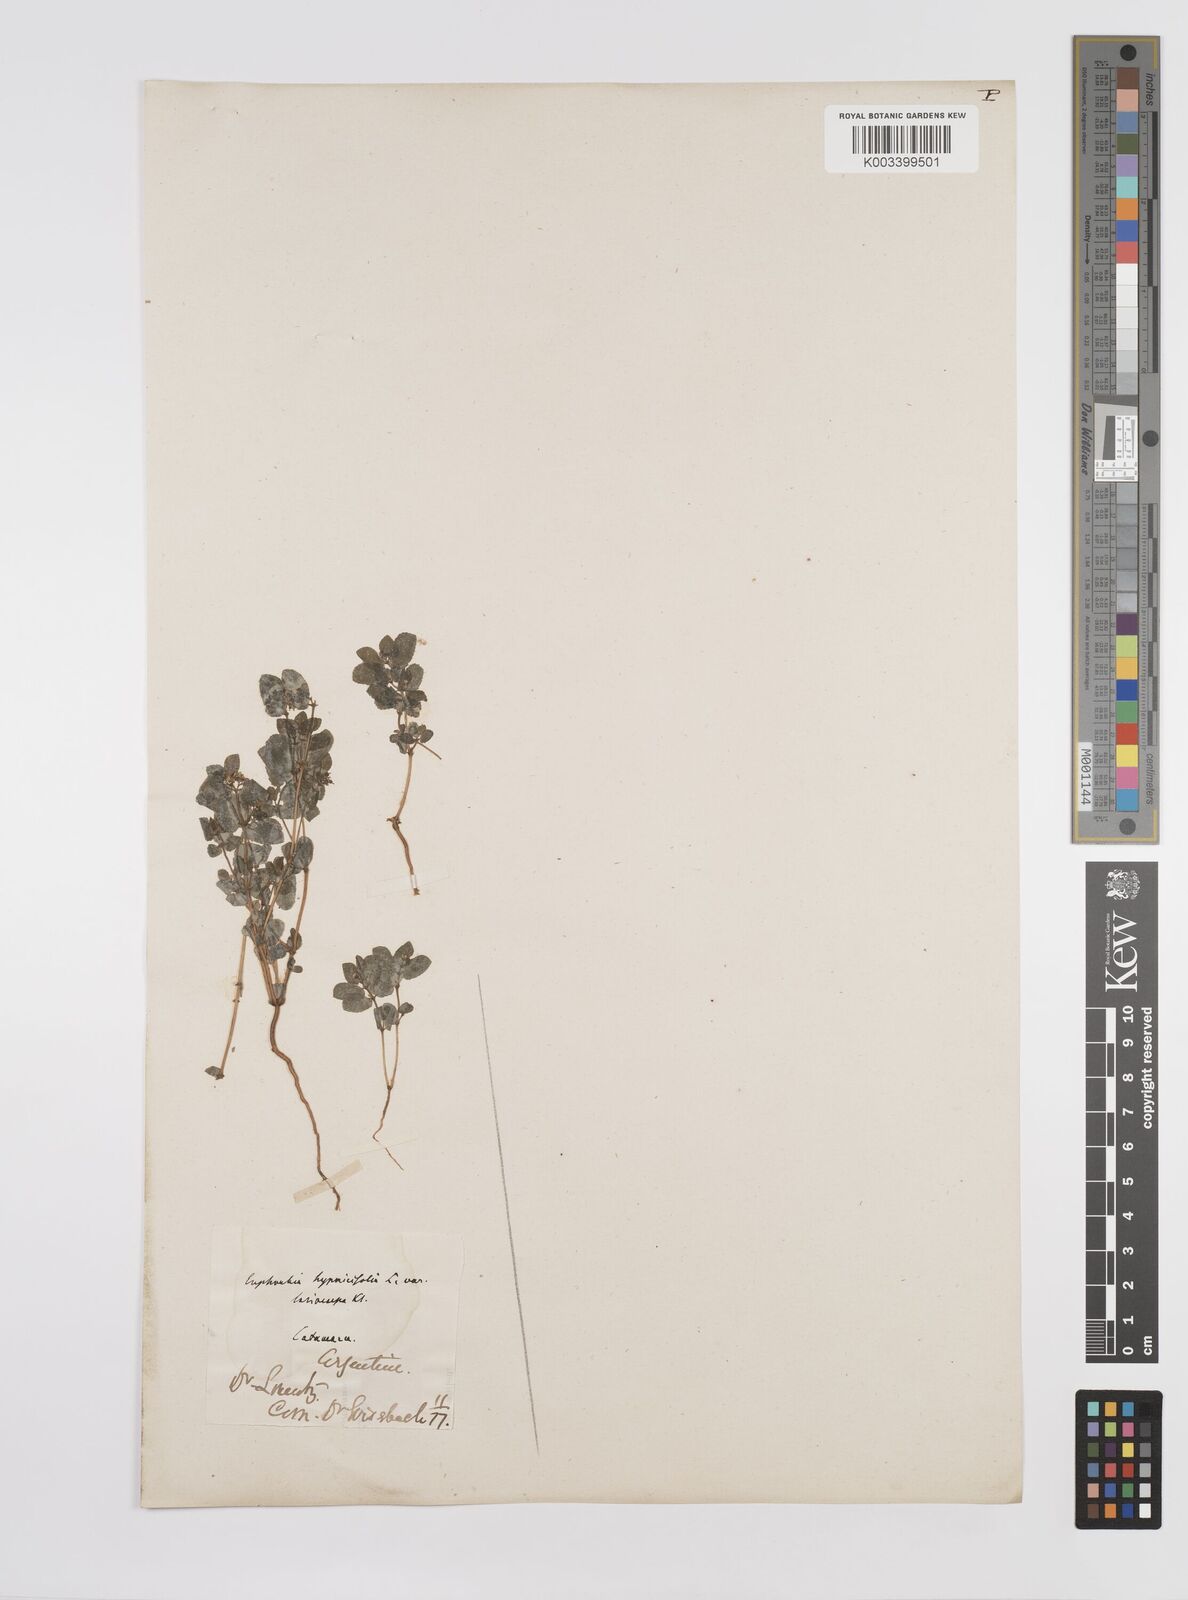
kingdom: Plantae
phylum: Tracheophyta
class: Magnoliopsida
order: Malpighiales
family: Euphorbiaceae
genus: Euphorbia
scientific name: Euphorbia hypericifolia
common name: Graceful sandmat
